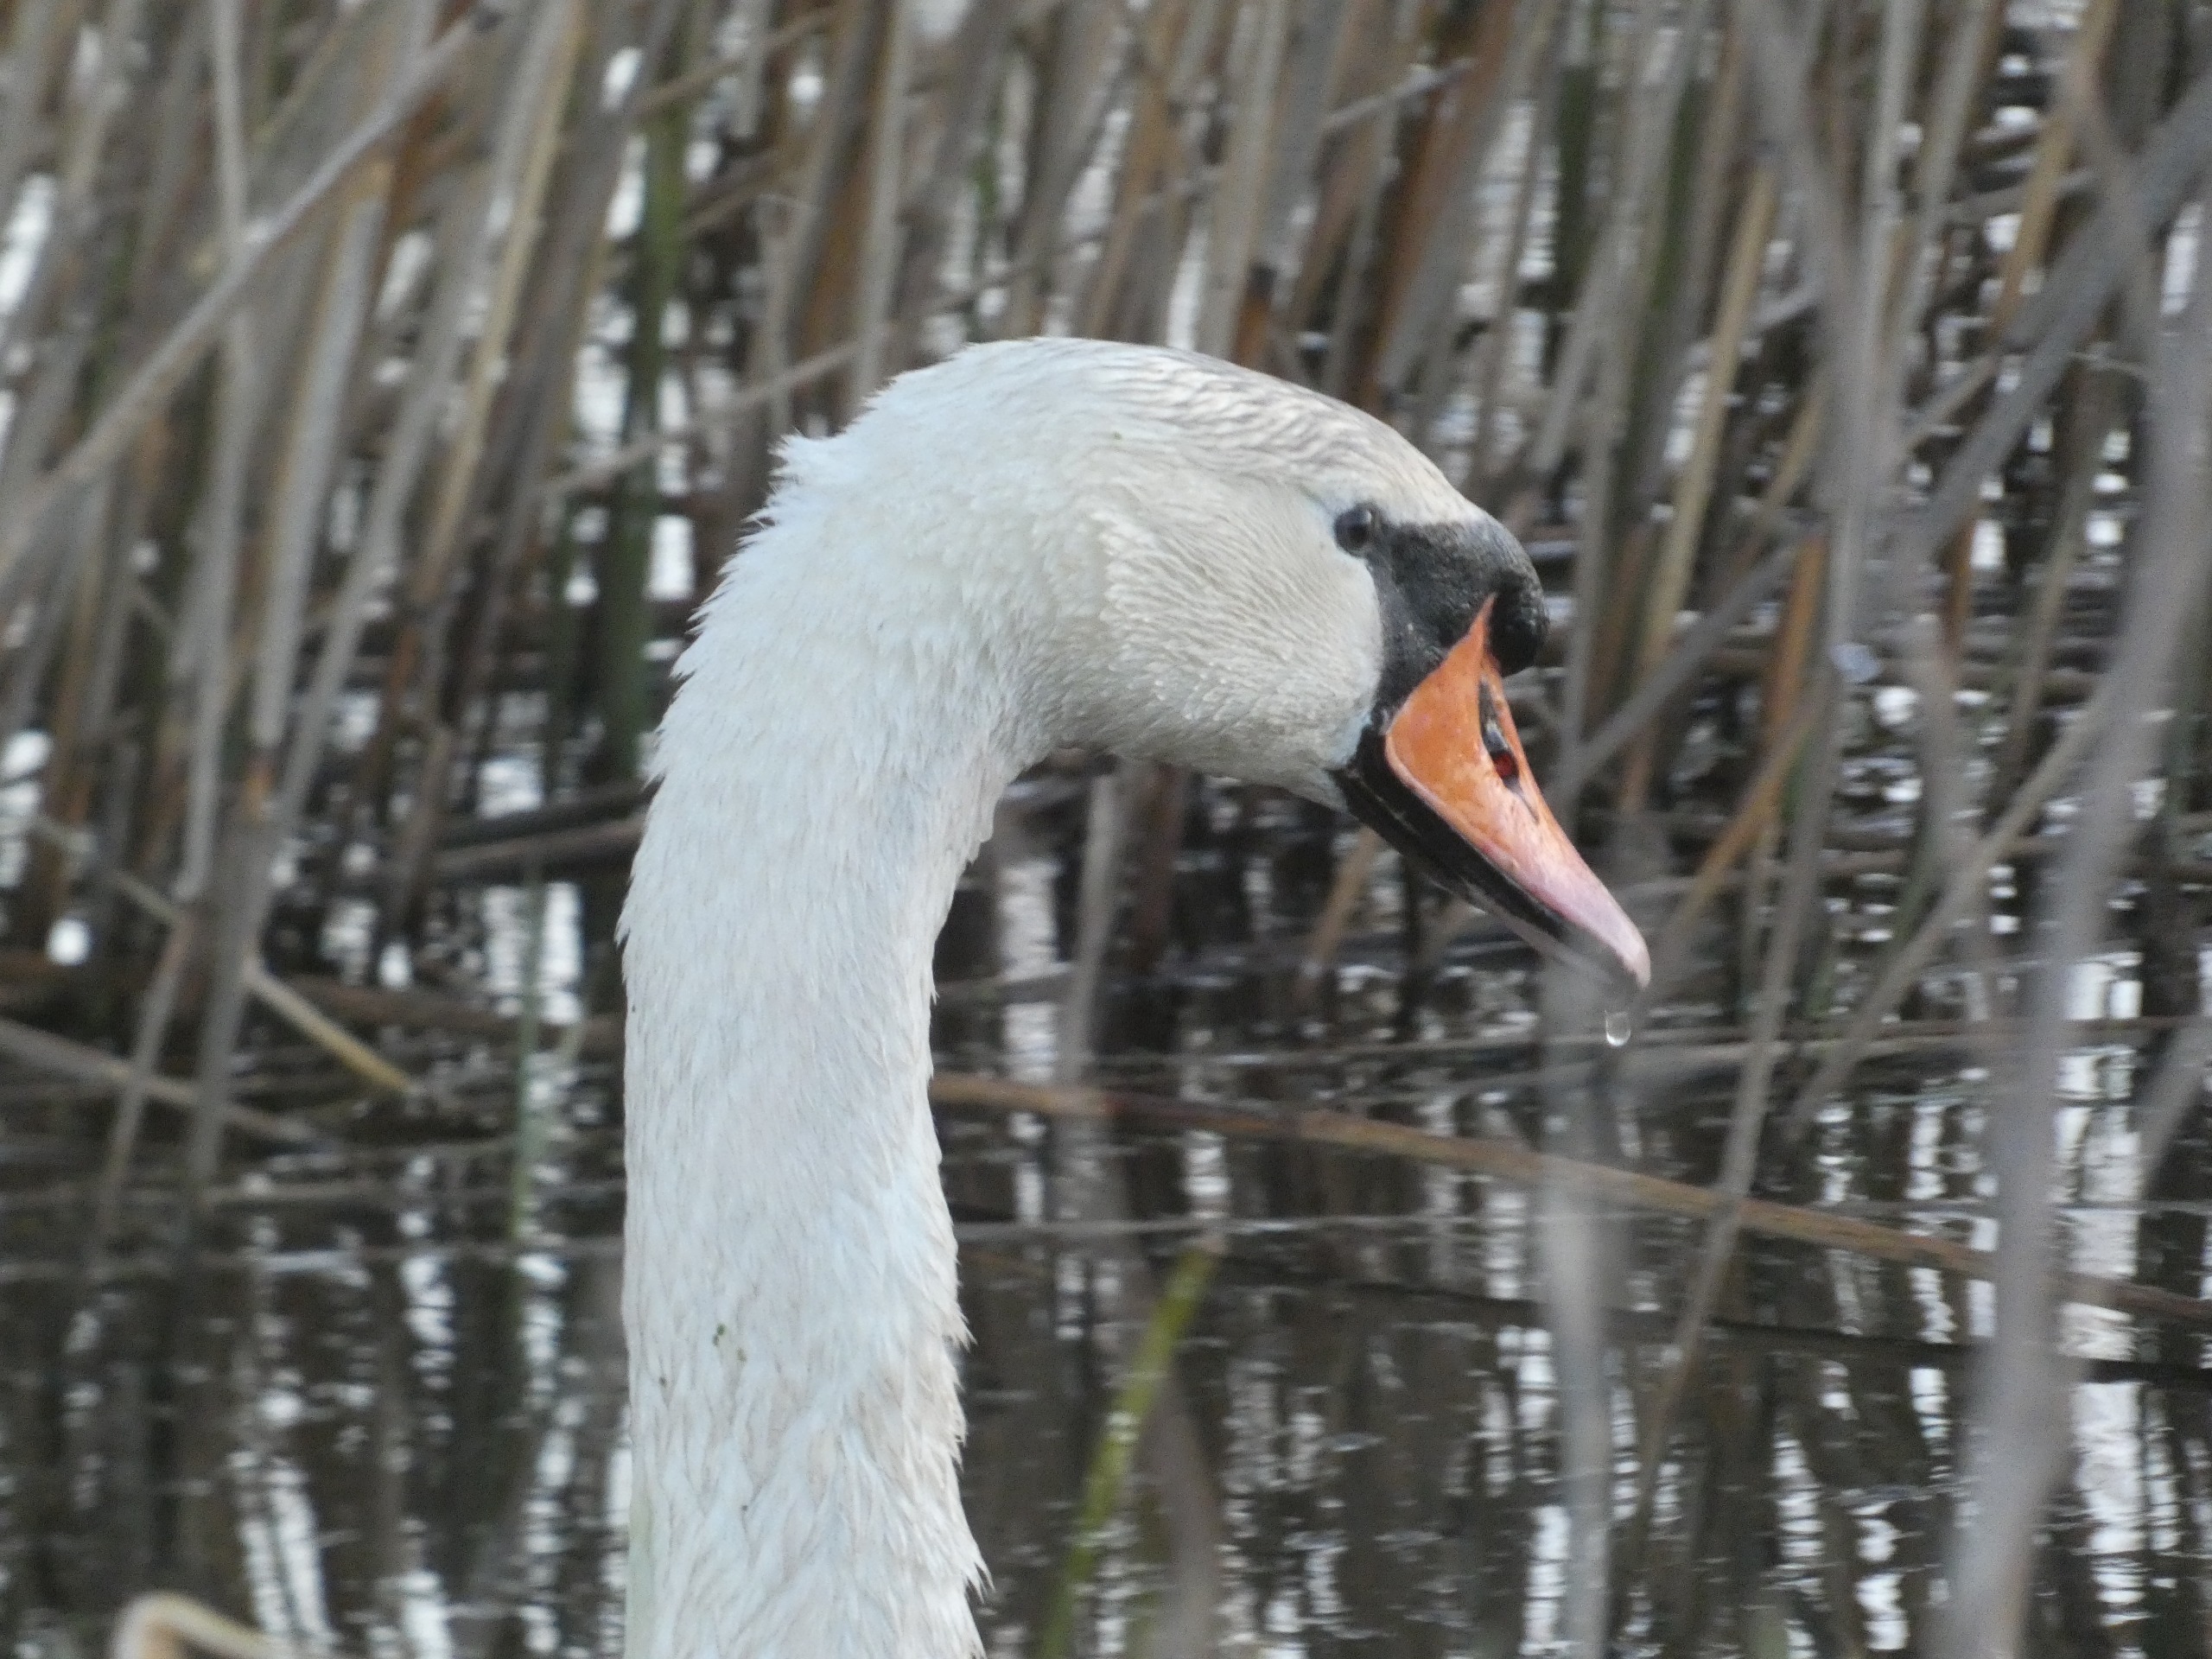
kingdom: Animalia
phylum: Chordata
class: Aves
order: Anseriformes
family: Anatidae
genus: Cygnus
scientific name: Cygnus olor
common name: Knopsvane
